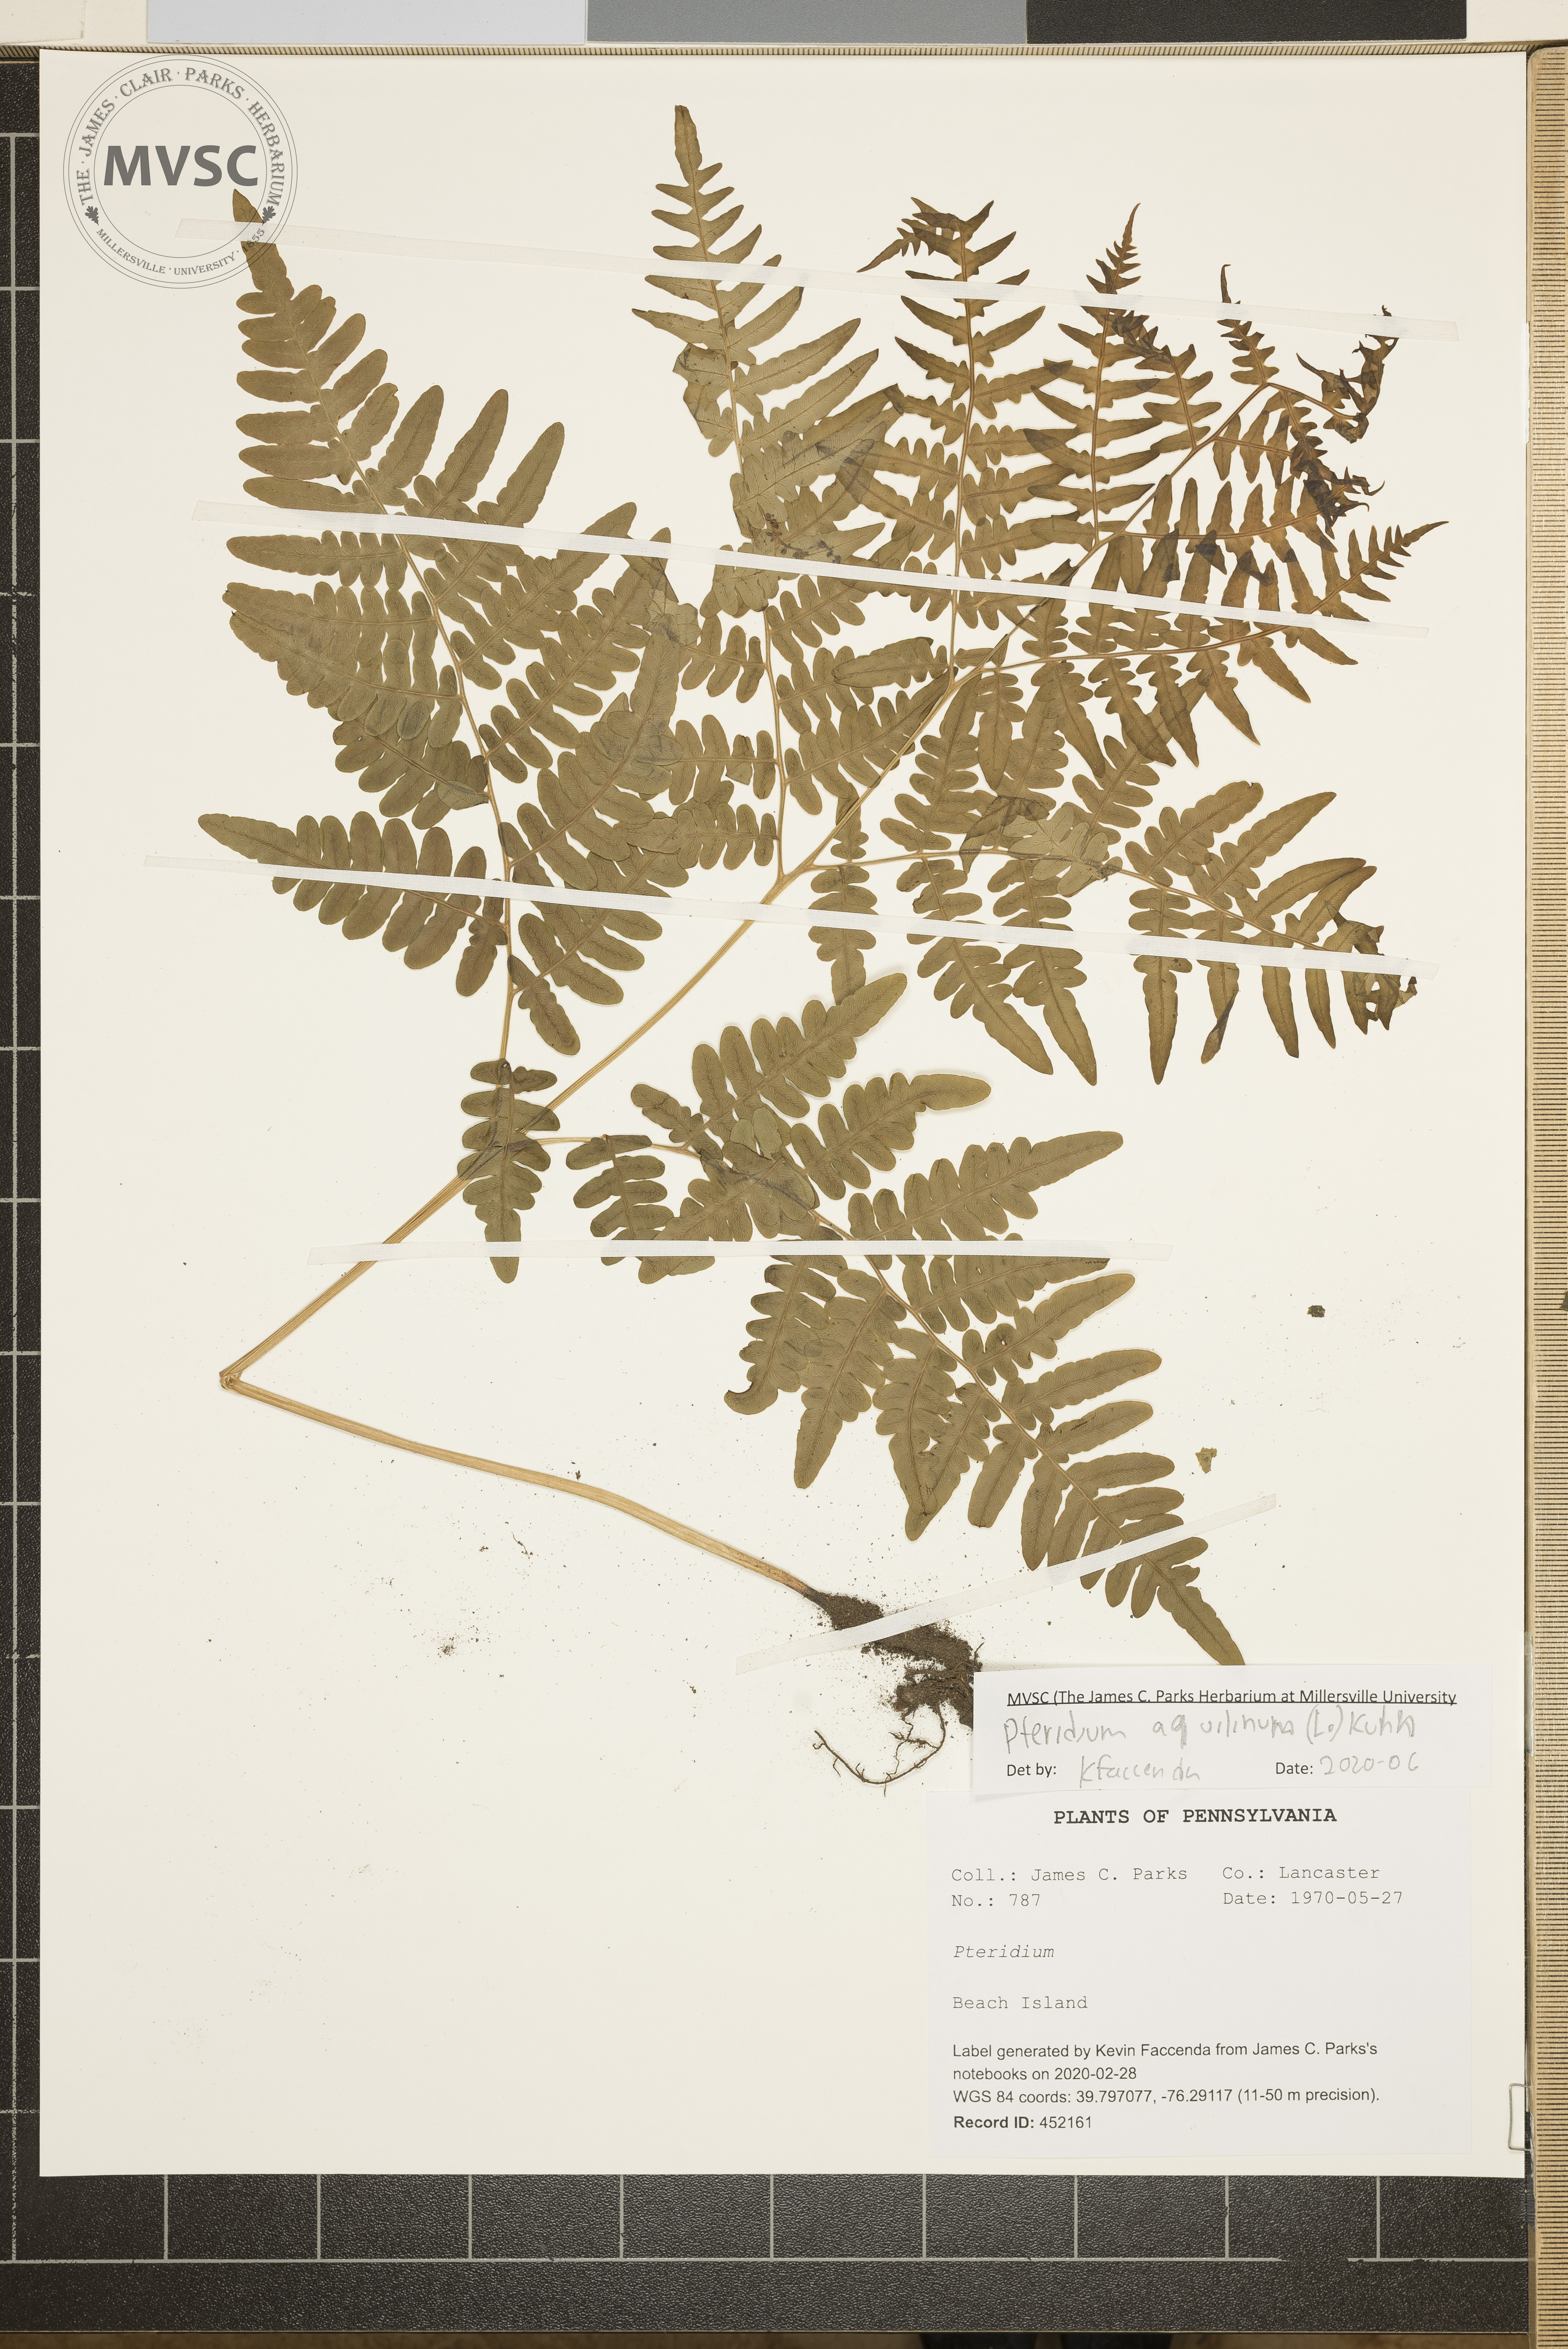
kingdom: Plantae
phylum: Tracheophyta
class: Polypodiopsida
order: Polypodiales
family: Dennstaedtiaceae
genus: Pteridium
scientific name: Pteridium
